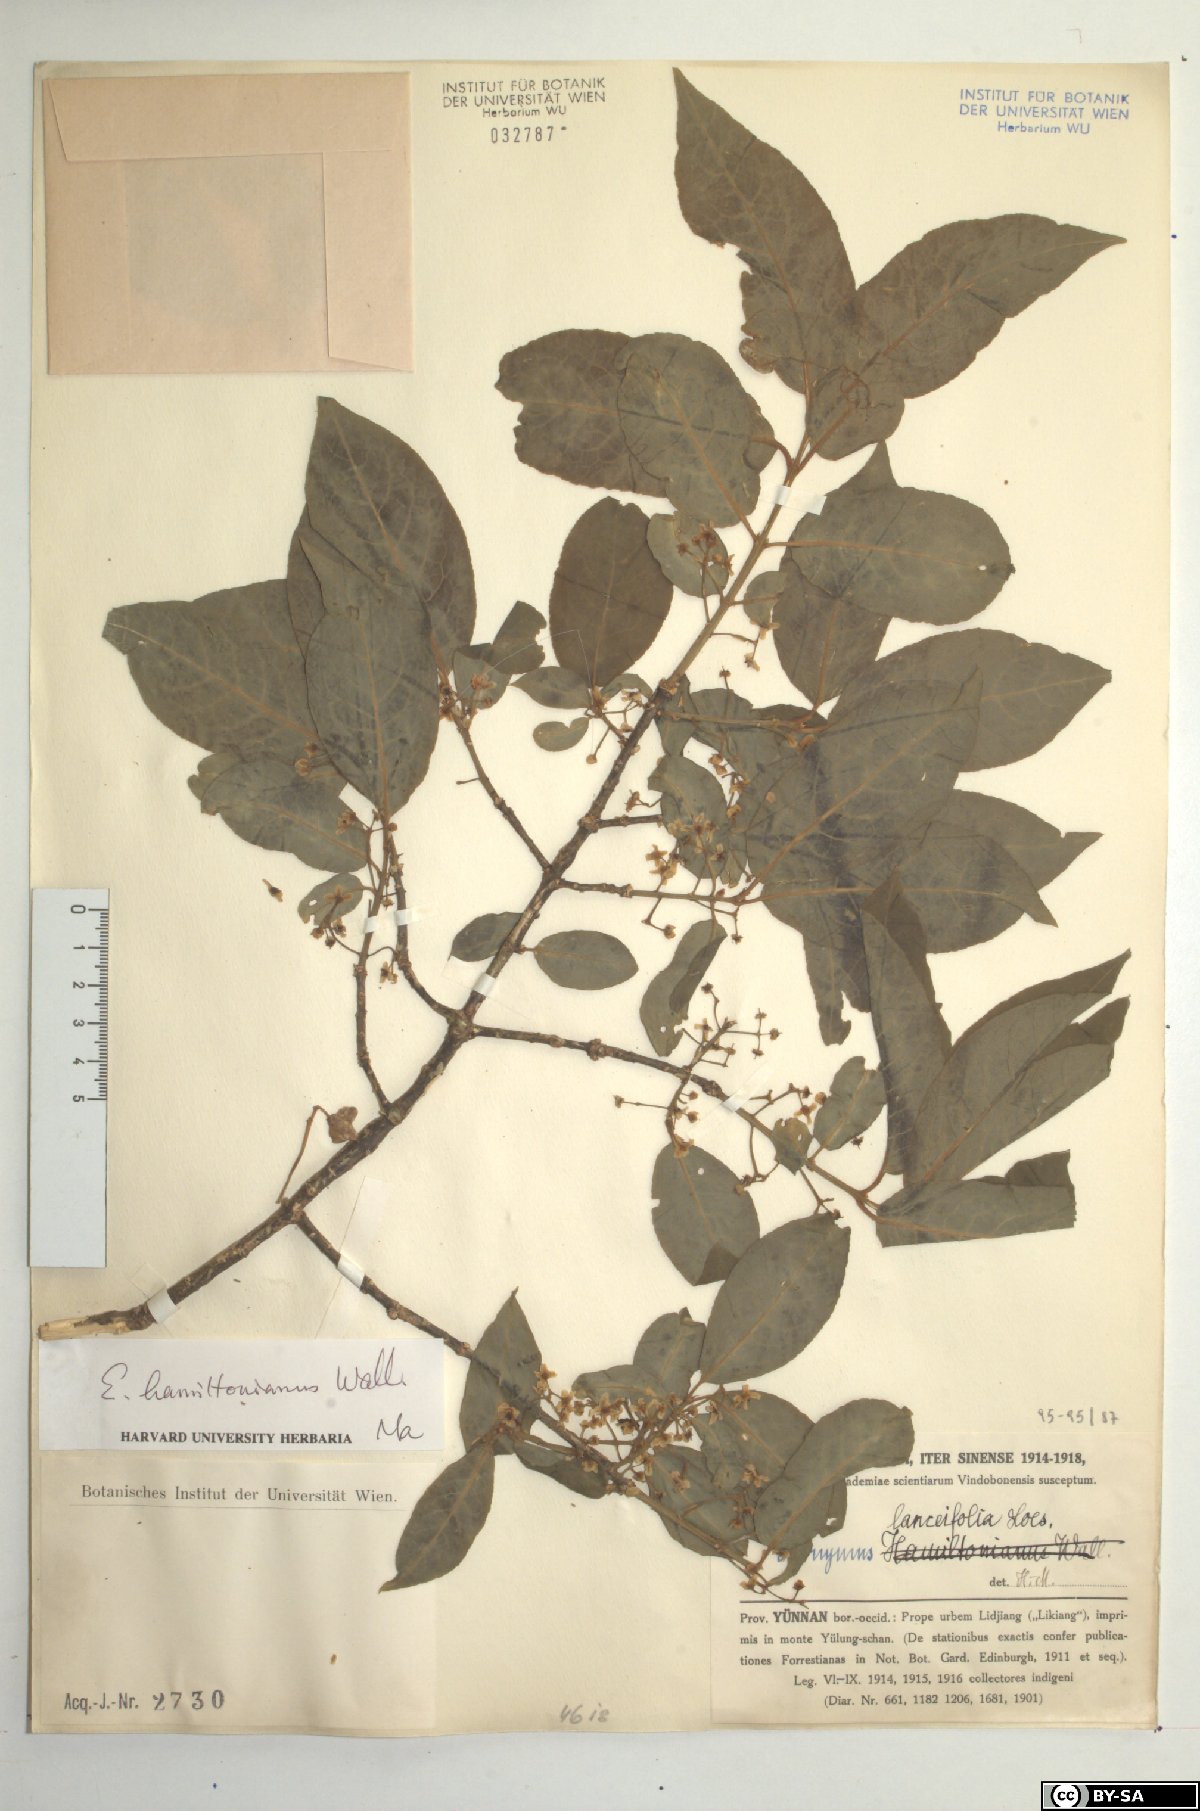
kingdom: Plantae
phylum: Tracheophyta
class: Magnoliopsida
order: Celastrales
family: Celastraceae
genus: Euonymus
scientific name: Euonymus hamiltonianus
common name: Hamilton's spindletree
